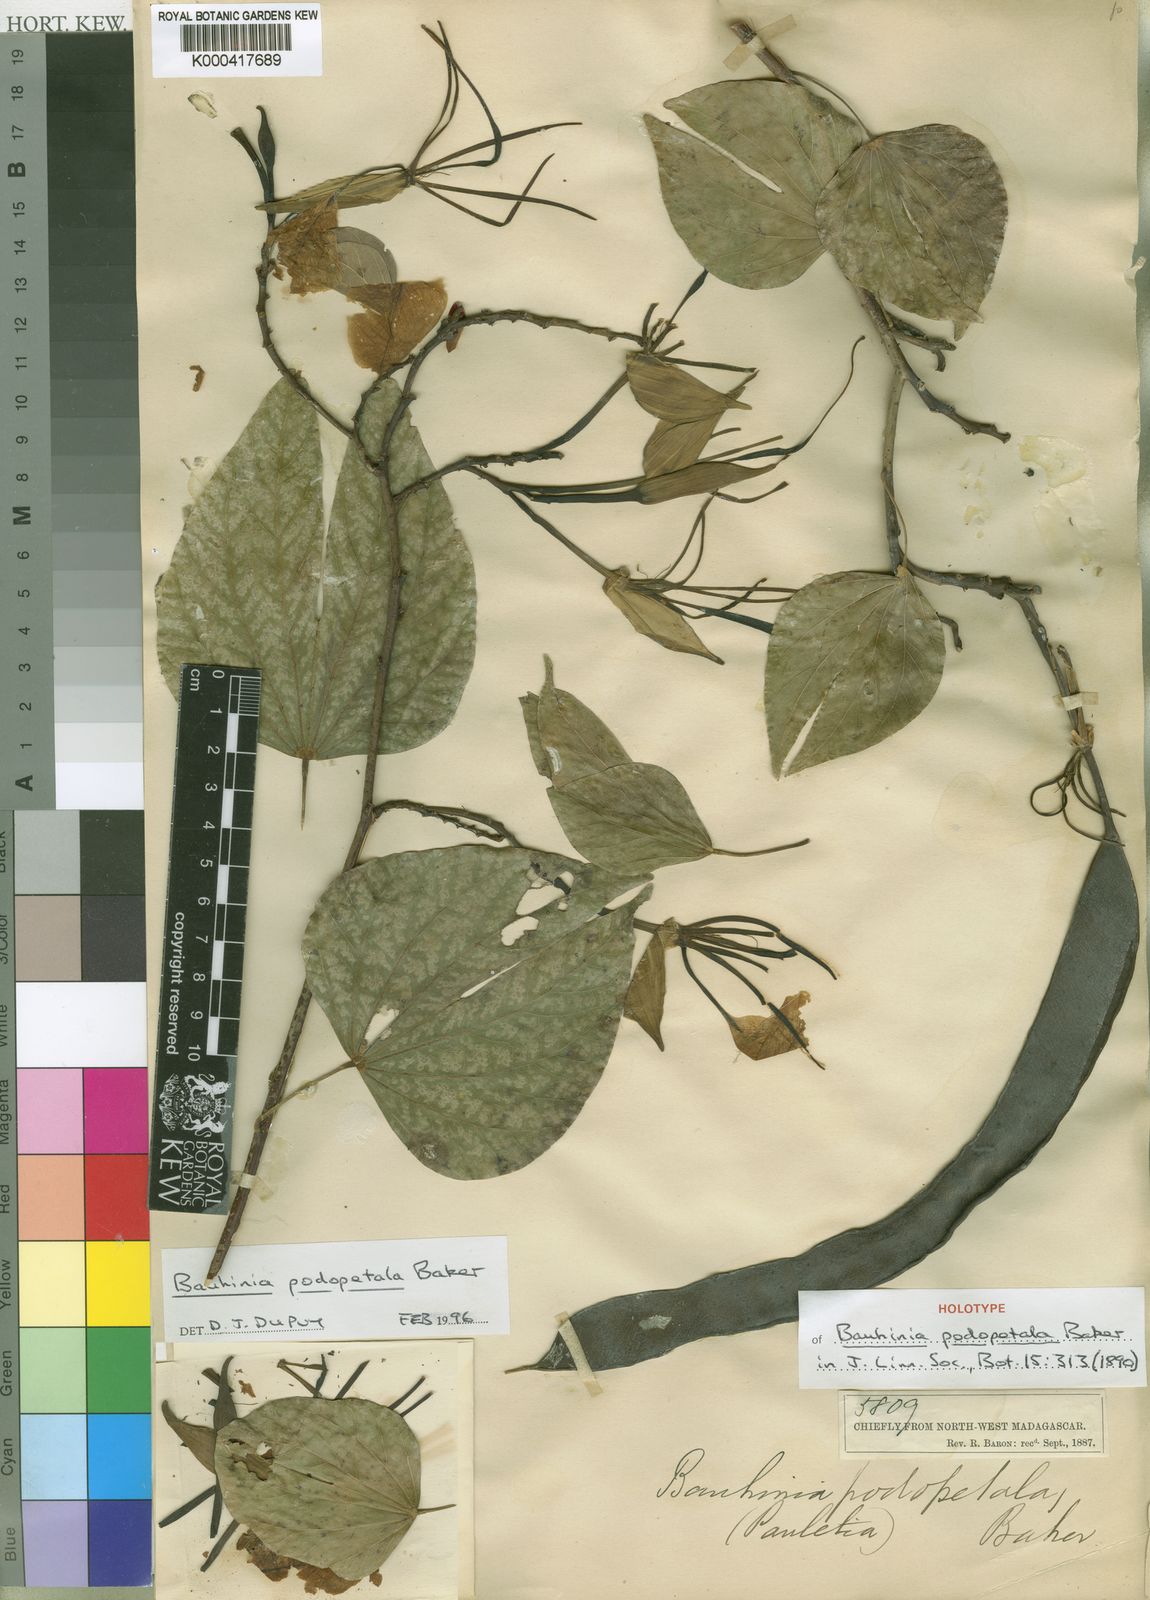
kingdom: Plantae
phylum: Tracheophyta
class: Magnoliopsida
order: Fabales
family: Fabaceae
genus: Bauhinia
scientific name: Bauhinia podopetala
